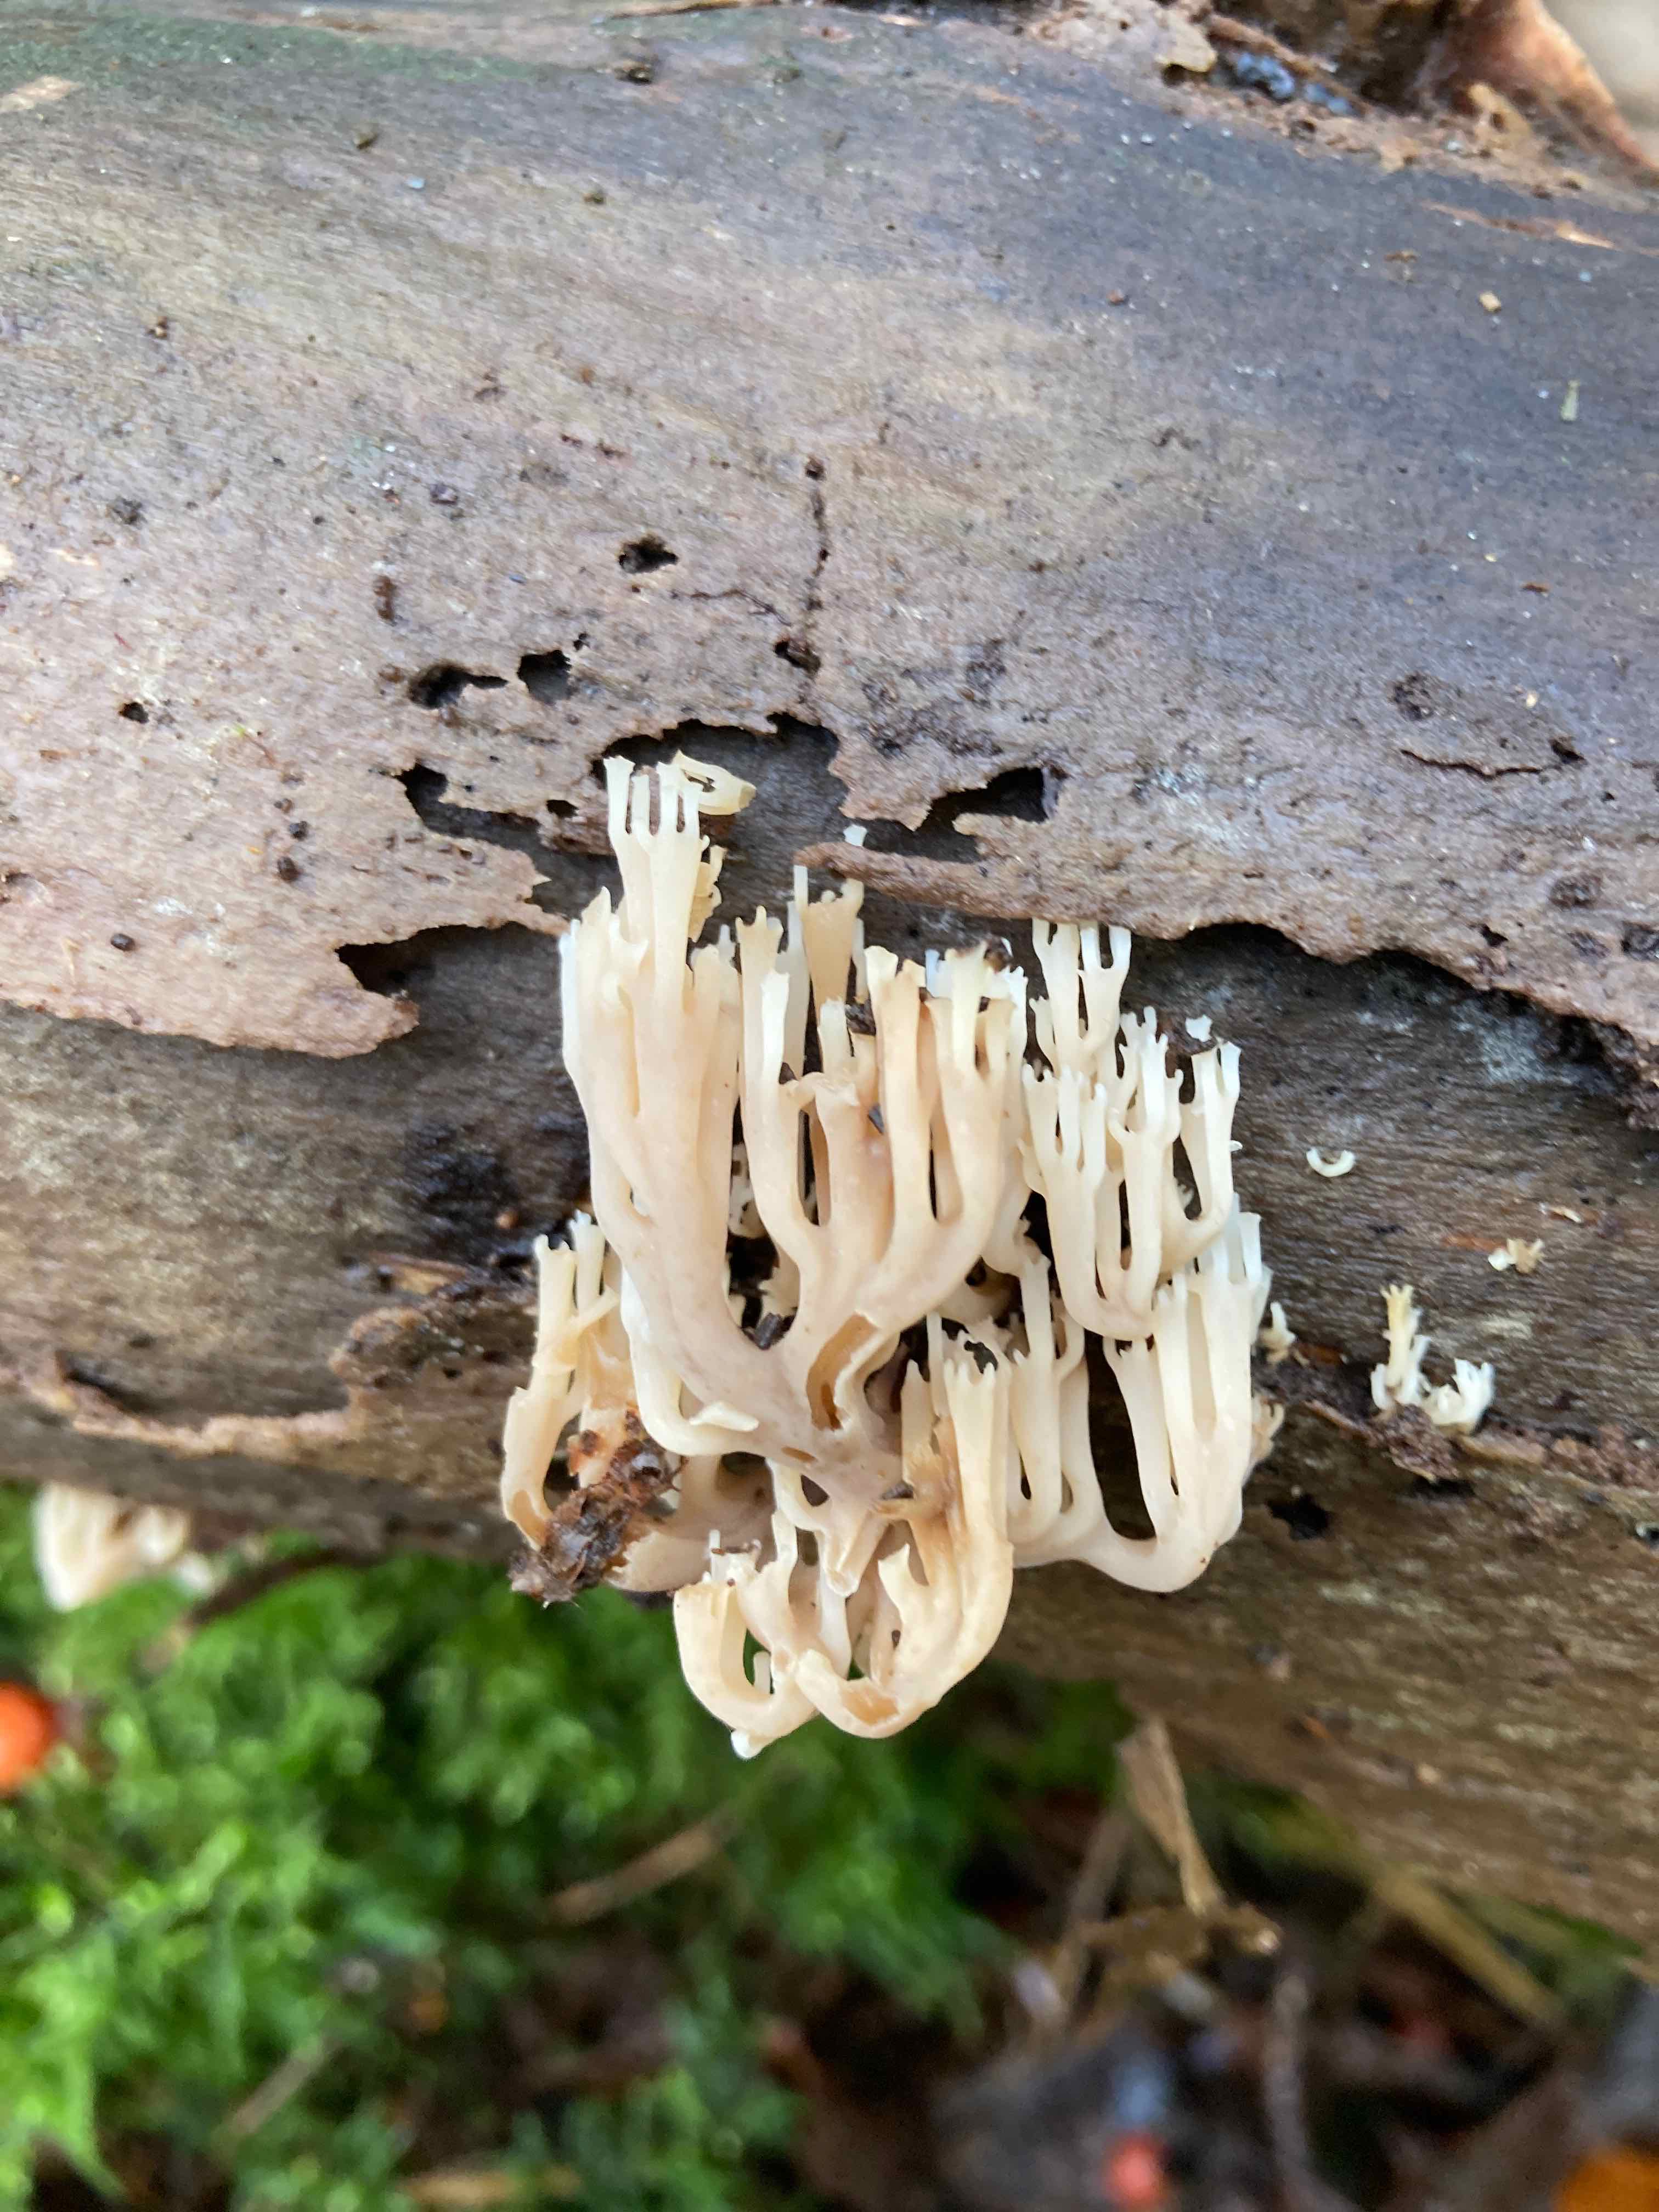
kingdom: Fungi
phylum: Basidiomycota
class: Agaricomycetes
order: Russulales
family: Auriscalpiaceae
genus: Artomyces
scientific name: Artomyces pyxidatus
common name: kandelabersvamp
